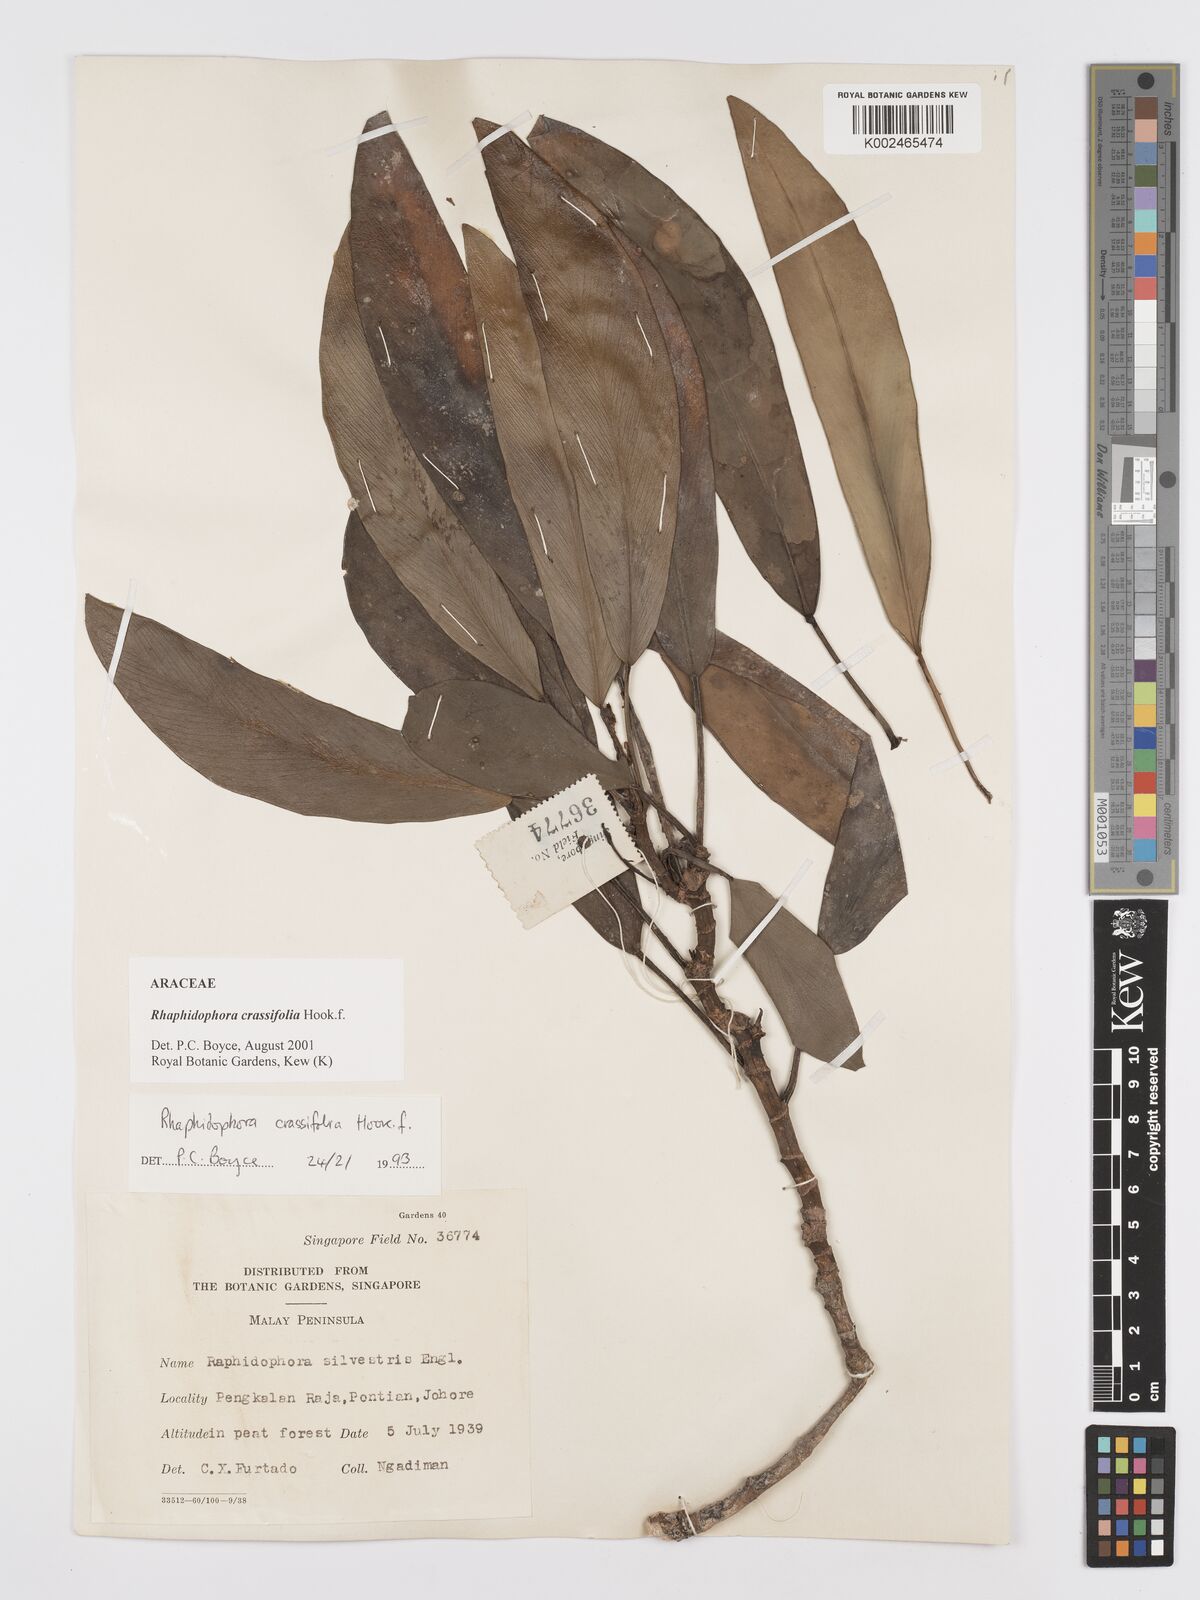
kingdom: Plantae
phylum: Tracheophyta
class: Liliopsida
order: Alismatales
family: Araceae
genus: Rhaphidophora
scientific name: Rhaphidophora crassifolia
